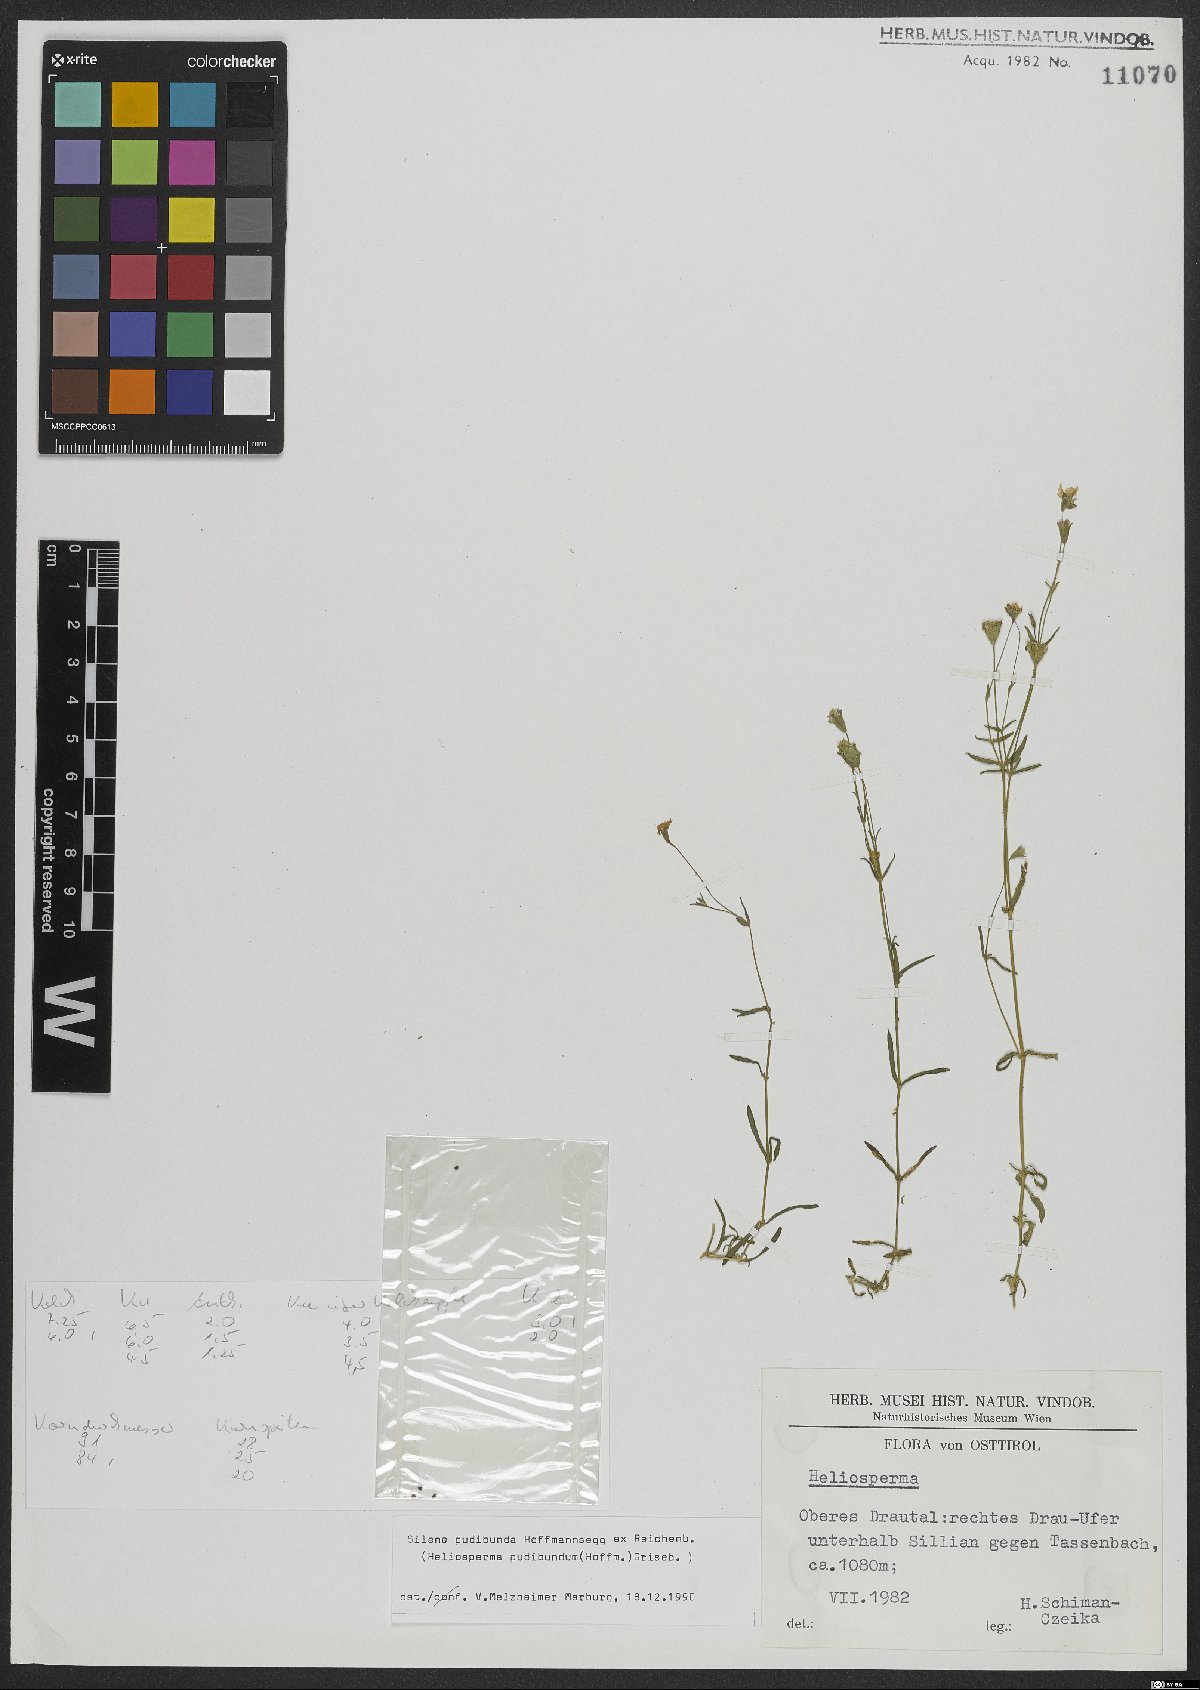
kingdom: Plantae
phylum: Tracheophyta
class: Magnoliopsida
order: Caryophyllales
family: Caryophyllaceae
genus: Heliosperma
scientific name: Heliosperma pudibundum
